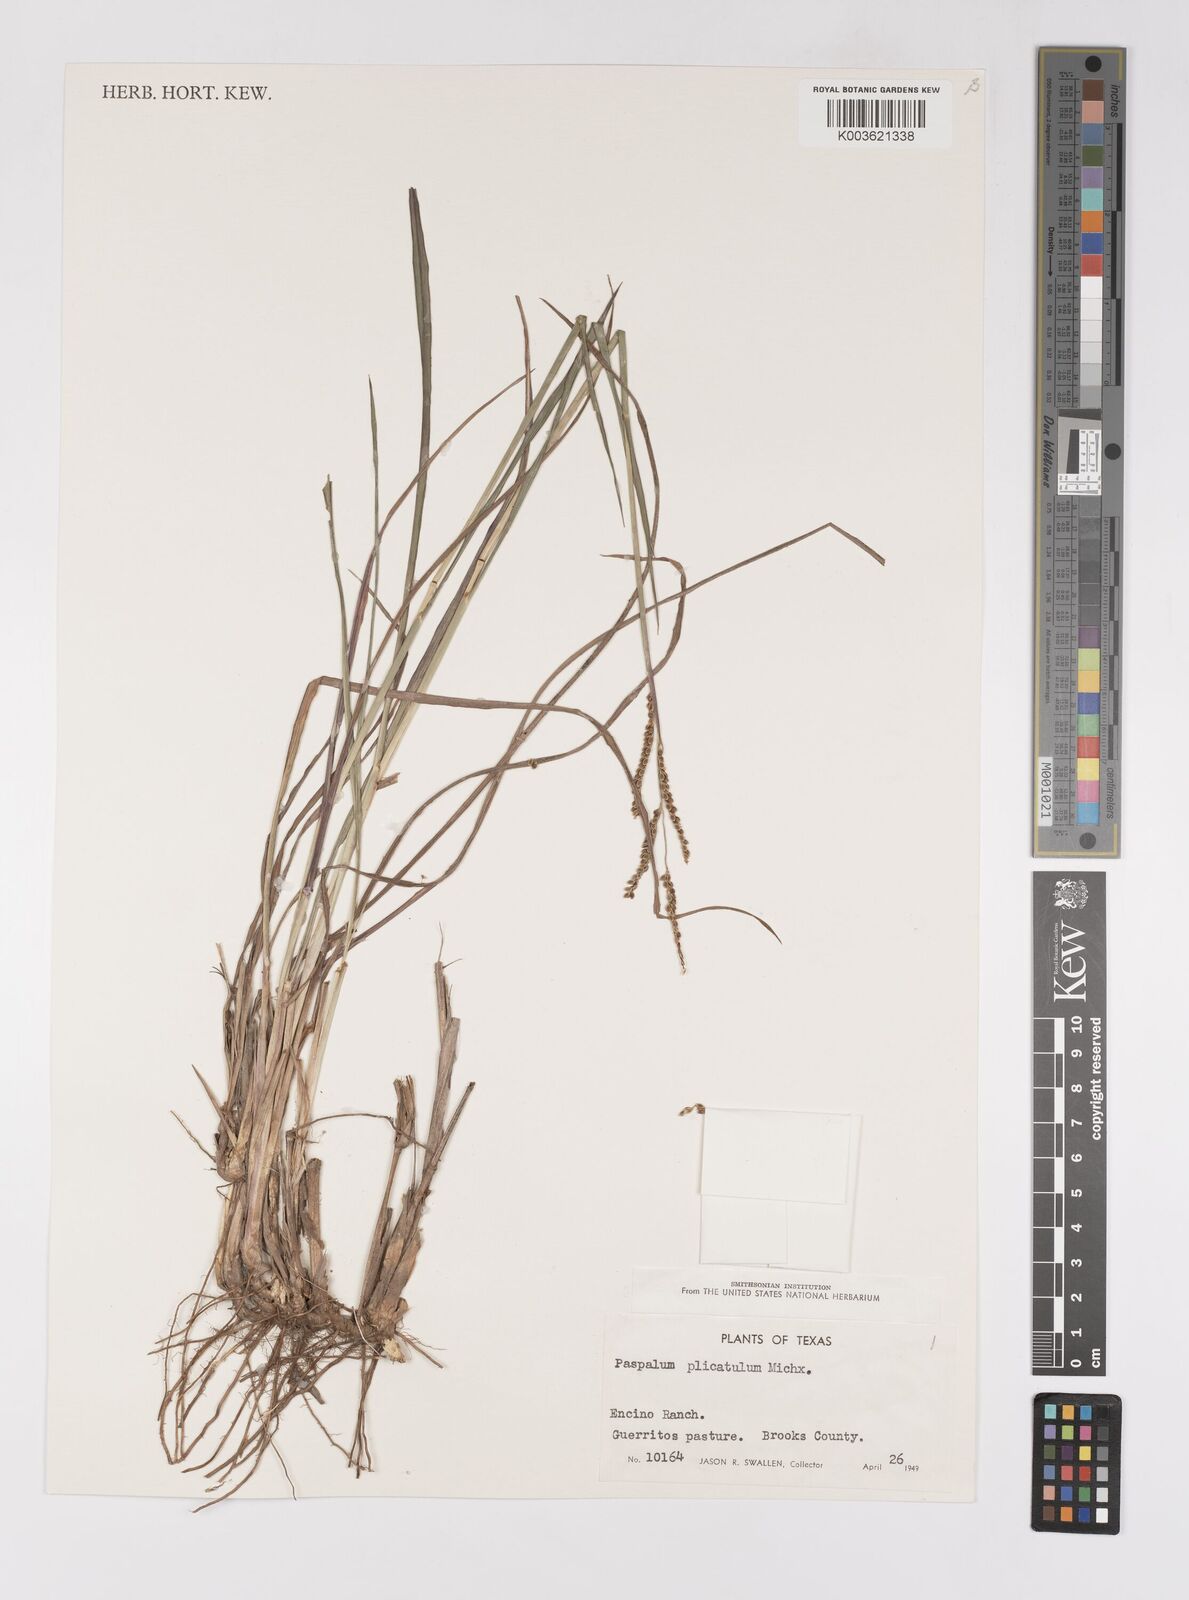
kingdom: Plantae
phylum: Tracheophyta
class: Liliopsida
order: Poales
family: Poaceae
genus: Paspalum
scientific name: Paspalum plicatulum
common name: Top paspalum
